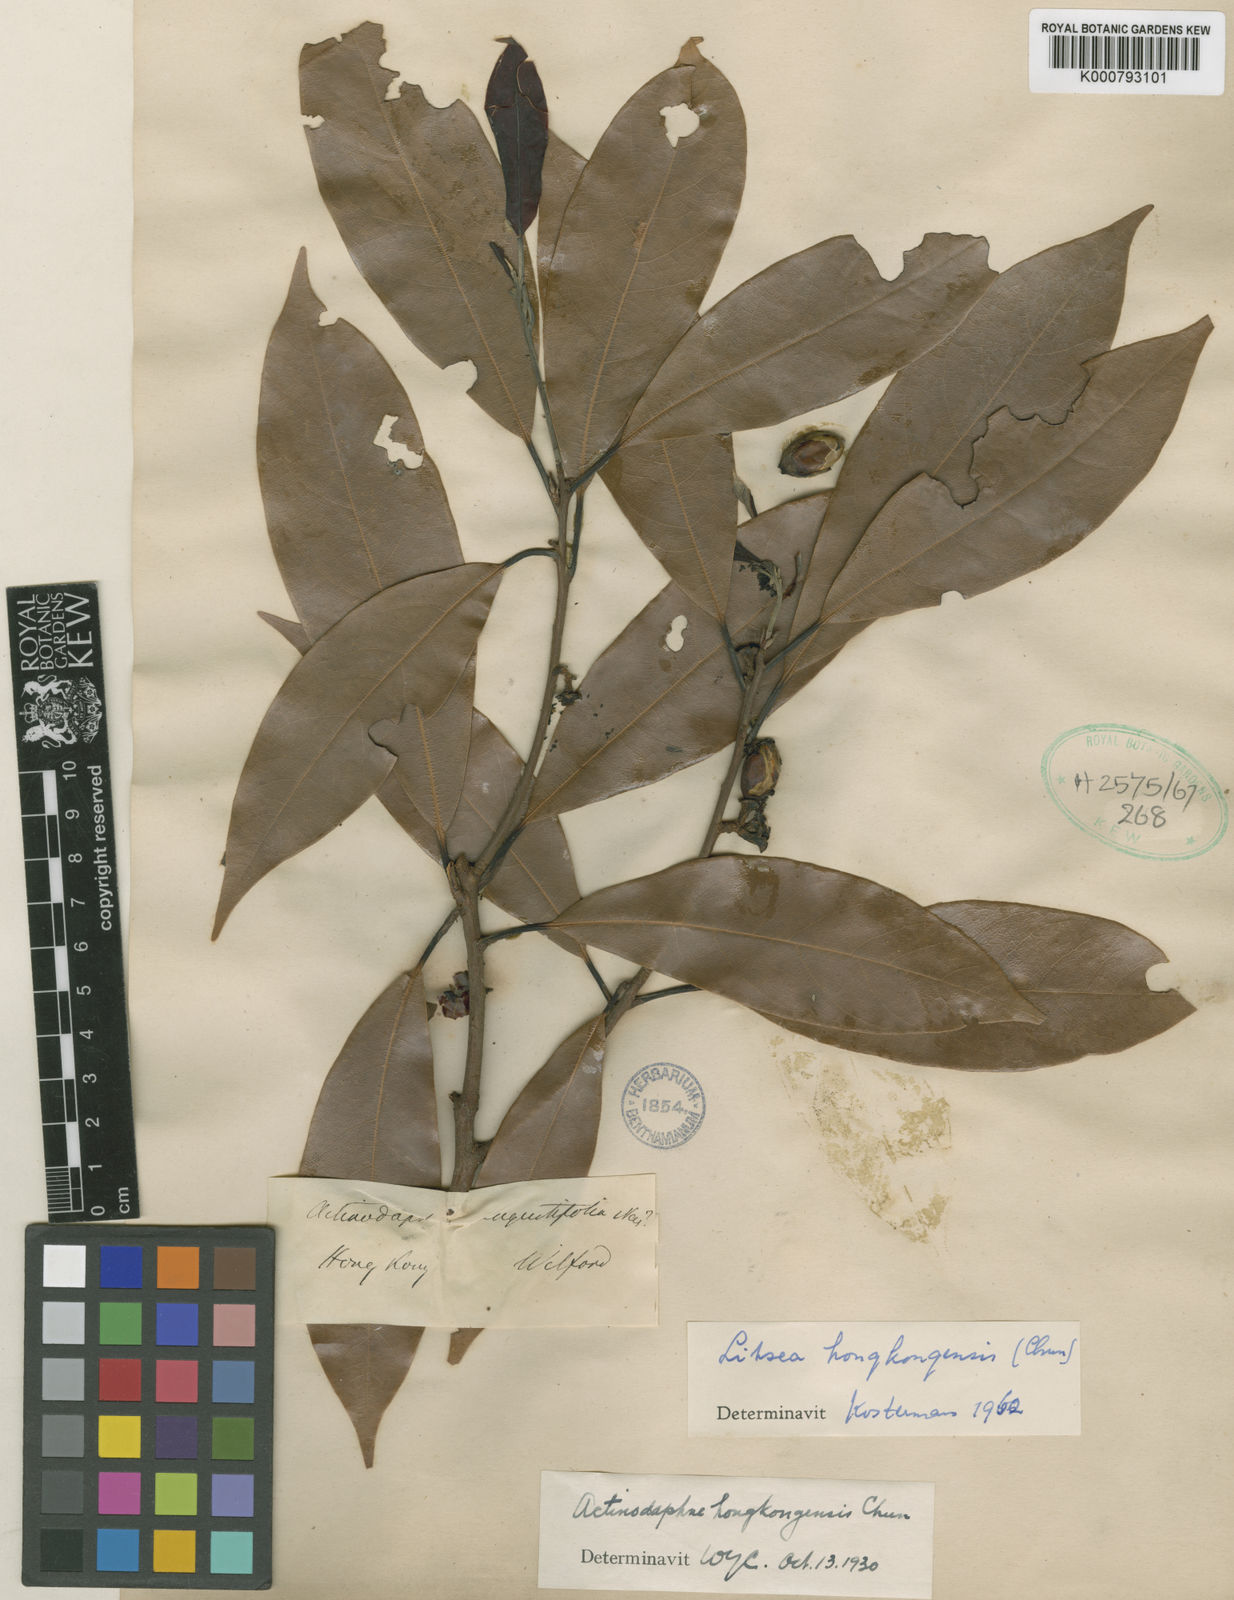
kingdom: Plantae
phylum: Tracheophyta
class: Magnoliopsida
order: Laurales
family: Lauraceae
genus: Litsea
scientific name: Litsea
